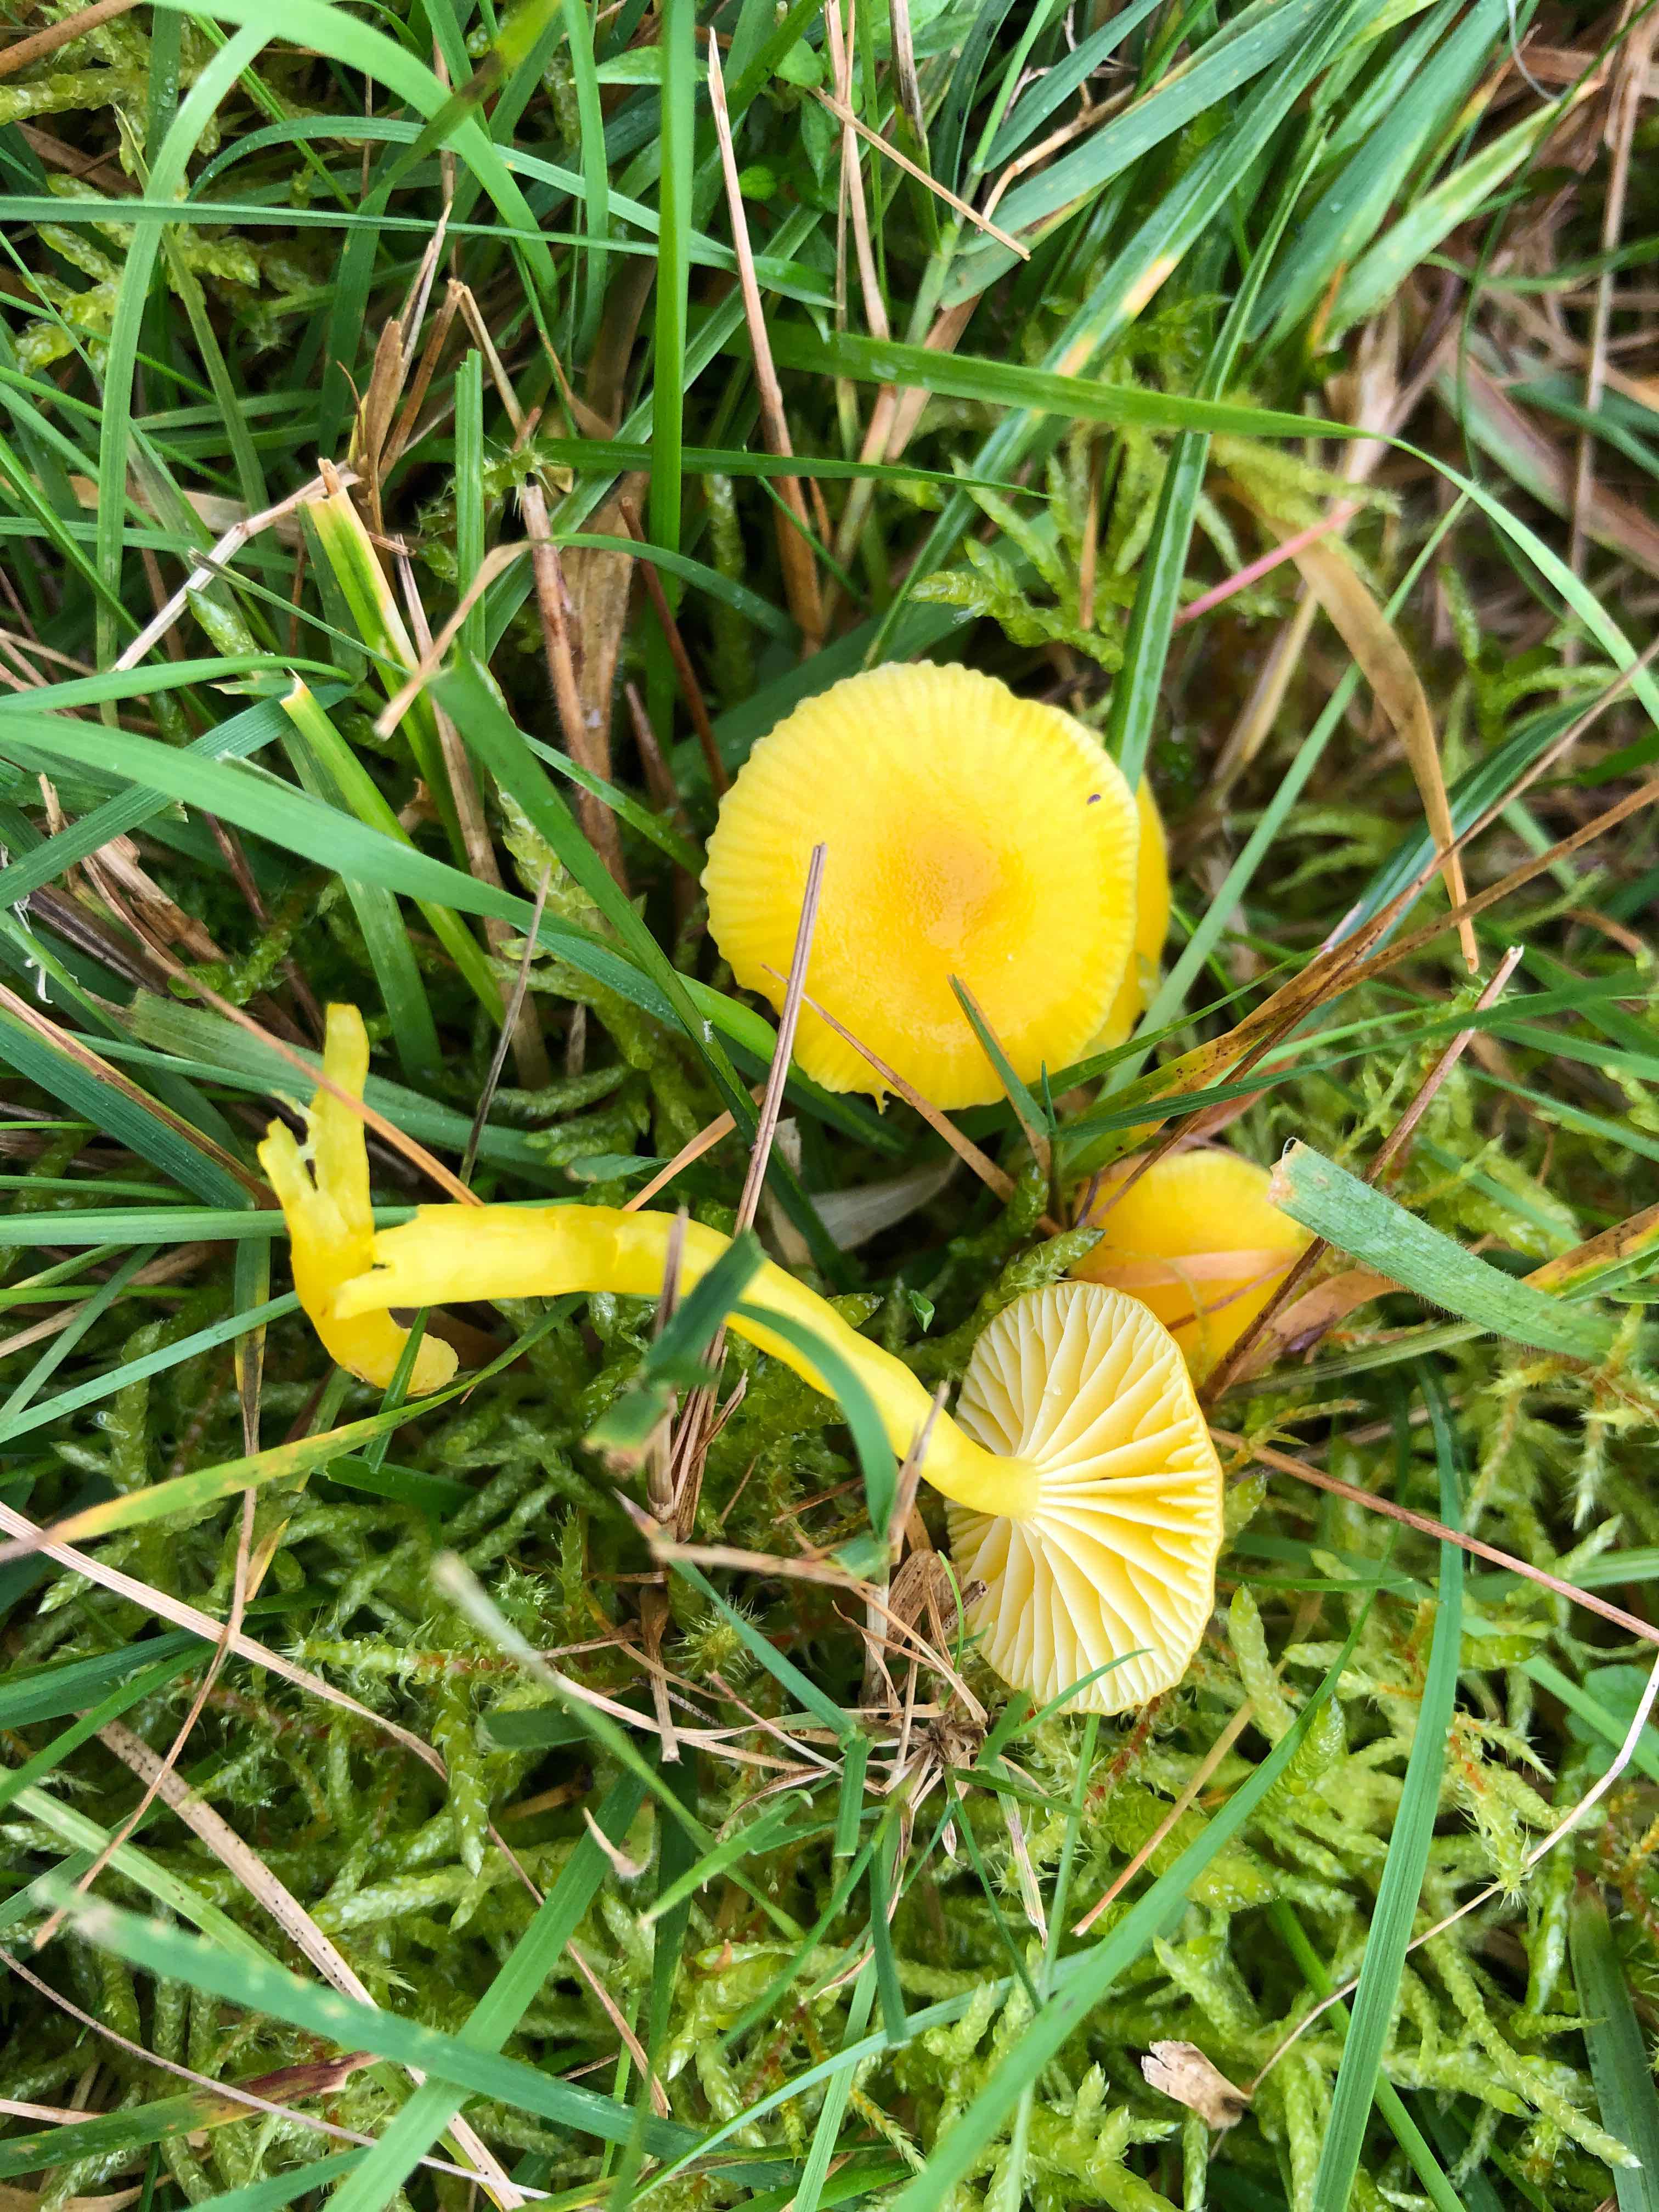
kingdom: Fungi
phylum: Basidiomycota
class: Agaricomycetes
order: Agaricales
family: Hygrophoraceae
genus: Hygrocybe
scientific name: Hygrocybe ceracea
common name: voksgul vokshat
